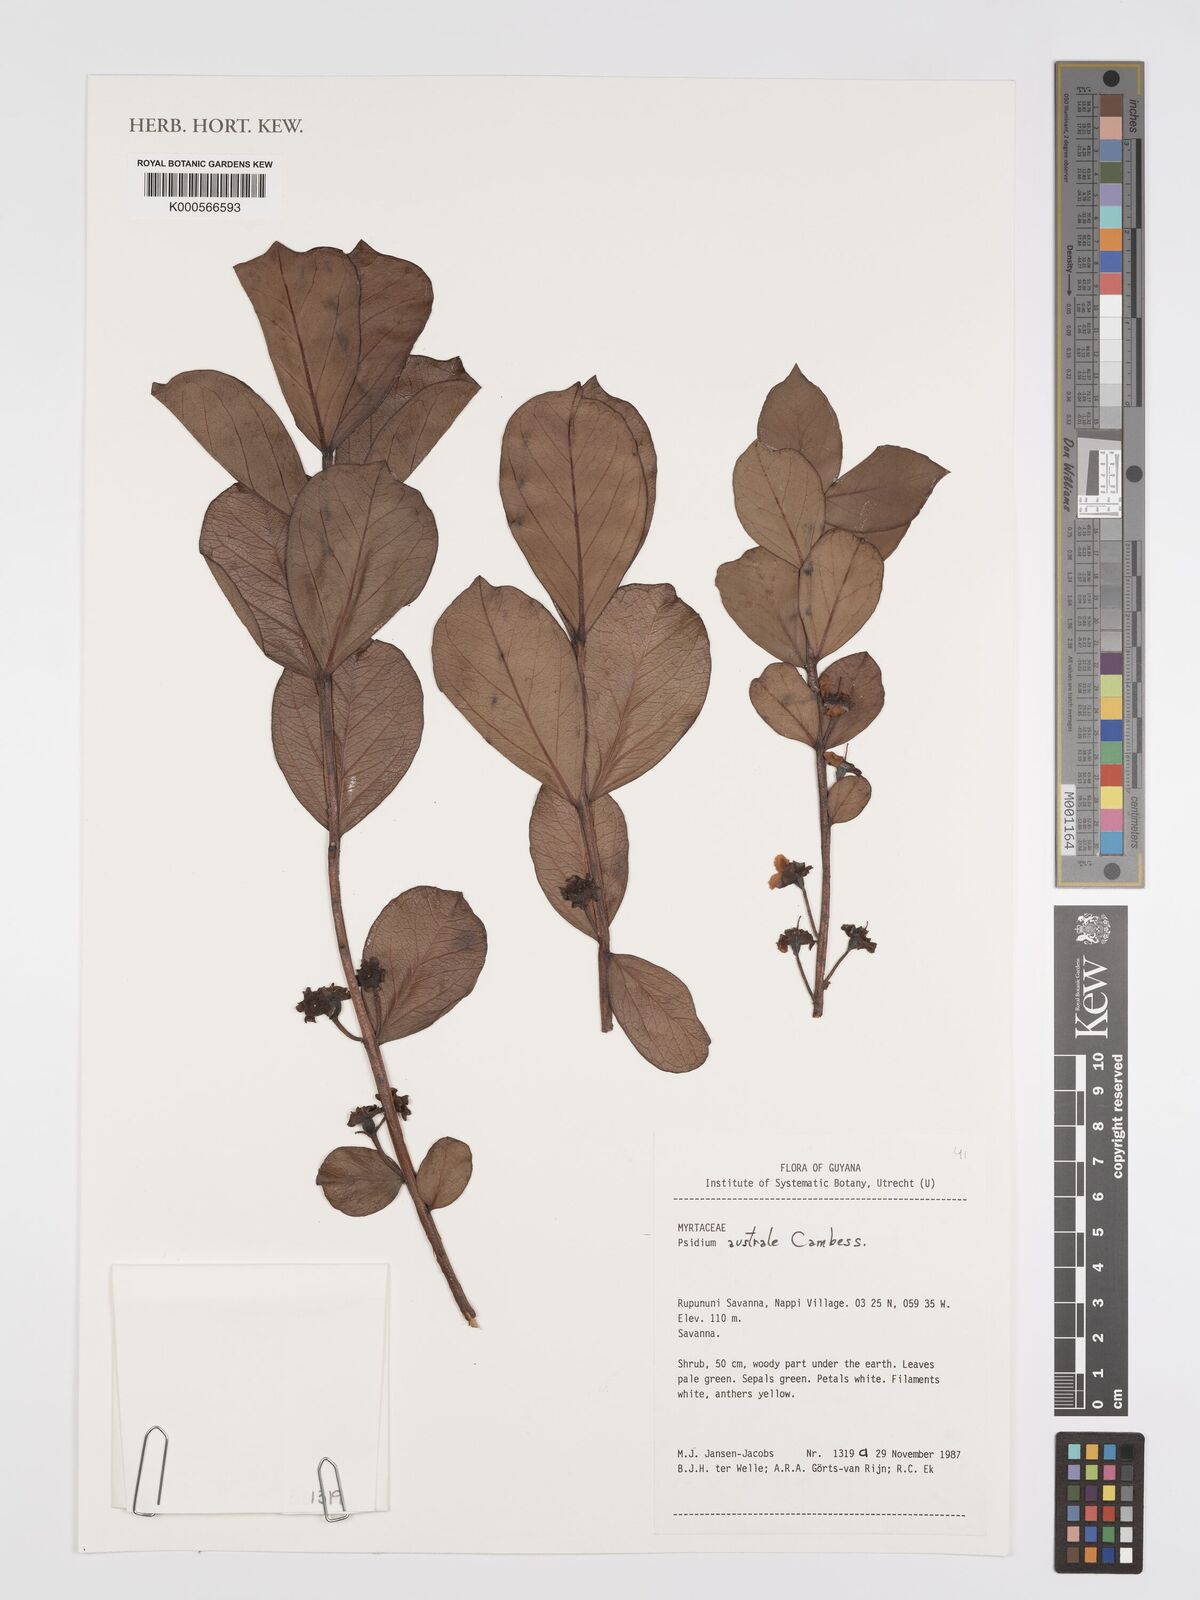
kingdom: Plantae
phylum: Tracheophyta
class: Magnoliopsida
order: Myrtales
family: Myrtaceae
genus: Psidium
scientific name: Psidium australe
